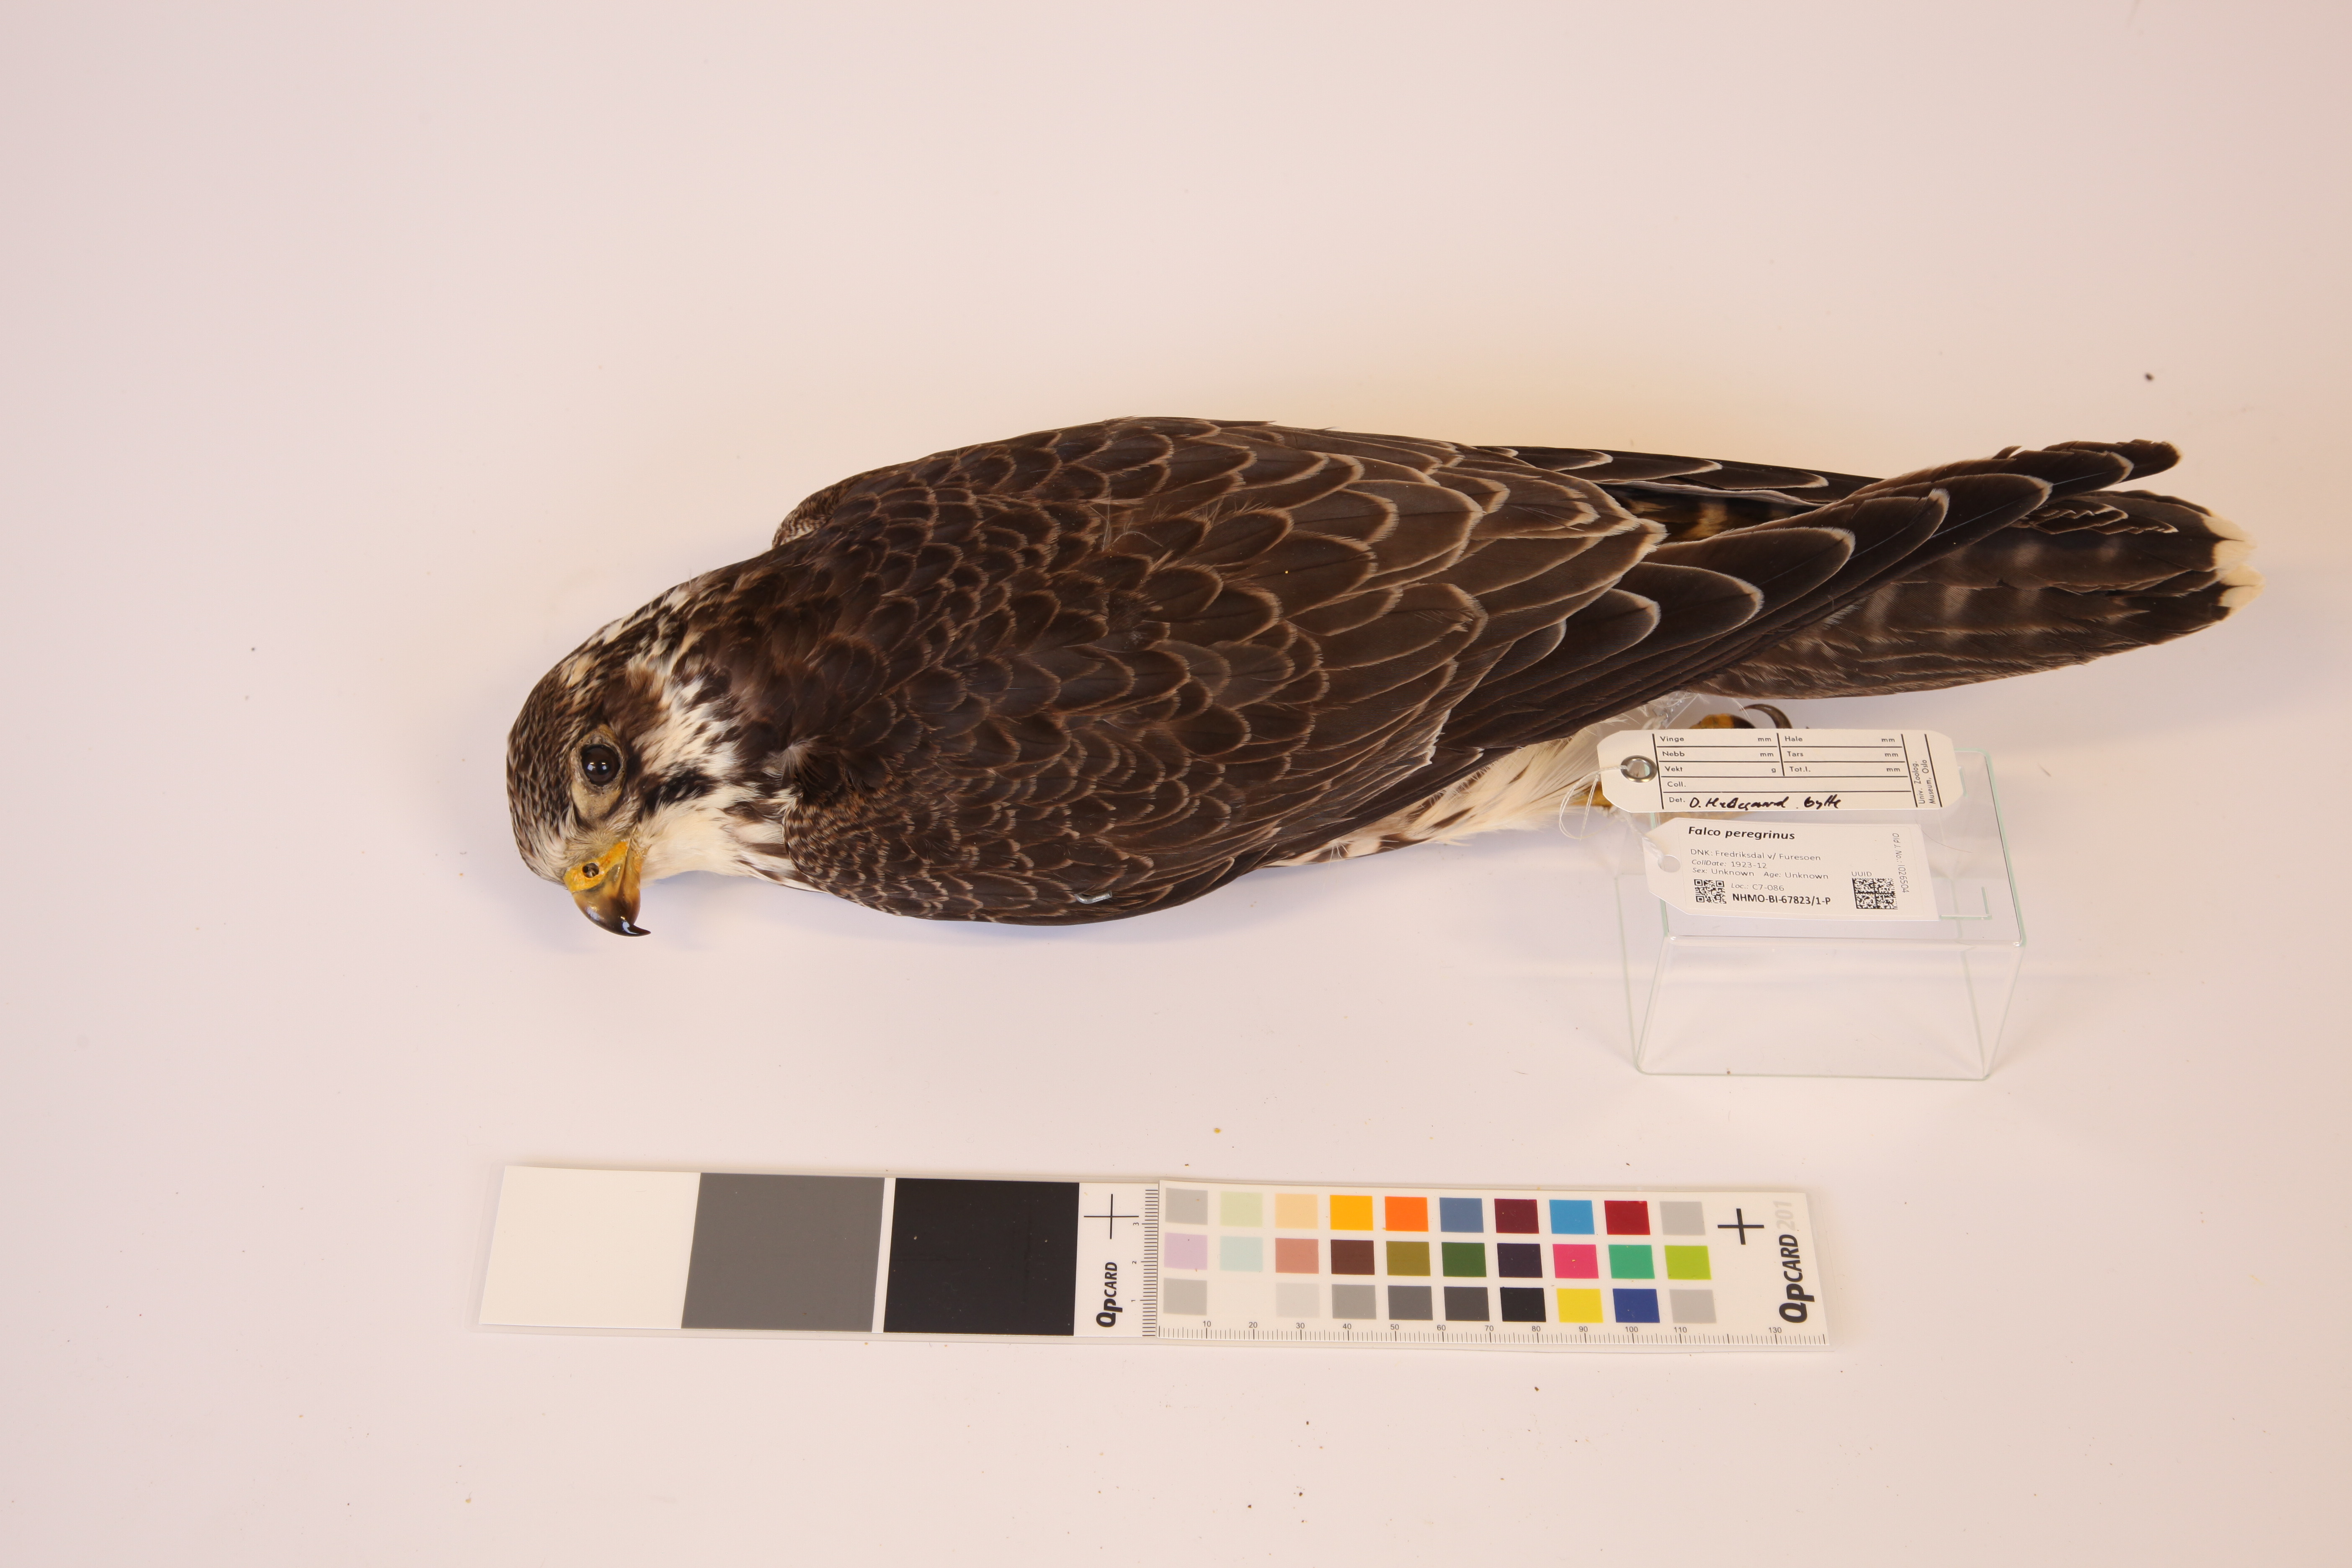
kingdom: Animalia
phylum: Chordata
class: Aves
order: Falconiformes
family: Falconidae
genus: Falco
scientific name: Falco peregrinus
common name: Peregrine falcon
